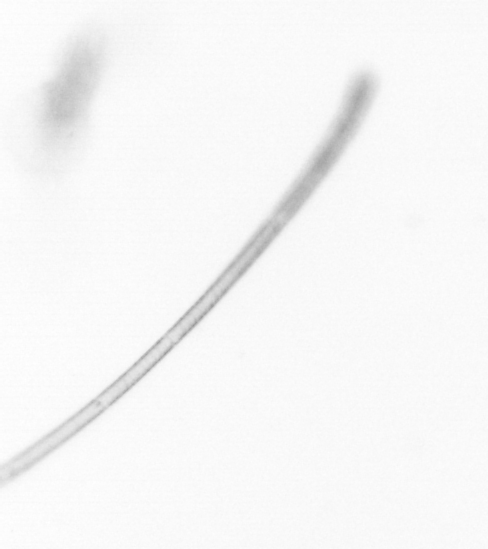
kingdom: Chromista
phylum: Ochrophyta
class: Bacillariophyceae
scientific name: Bacillariophyceae
